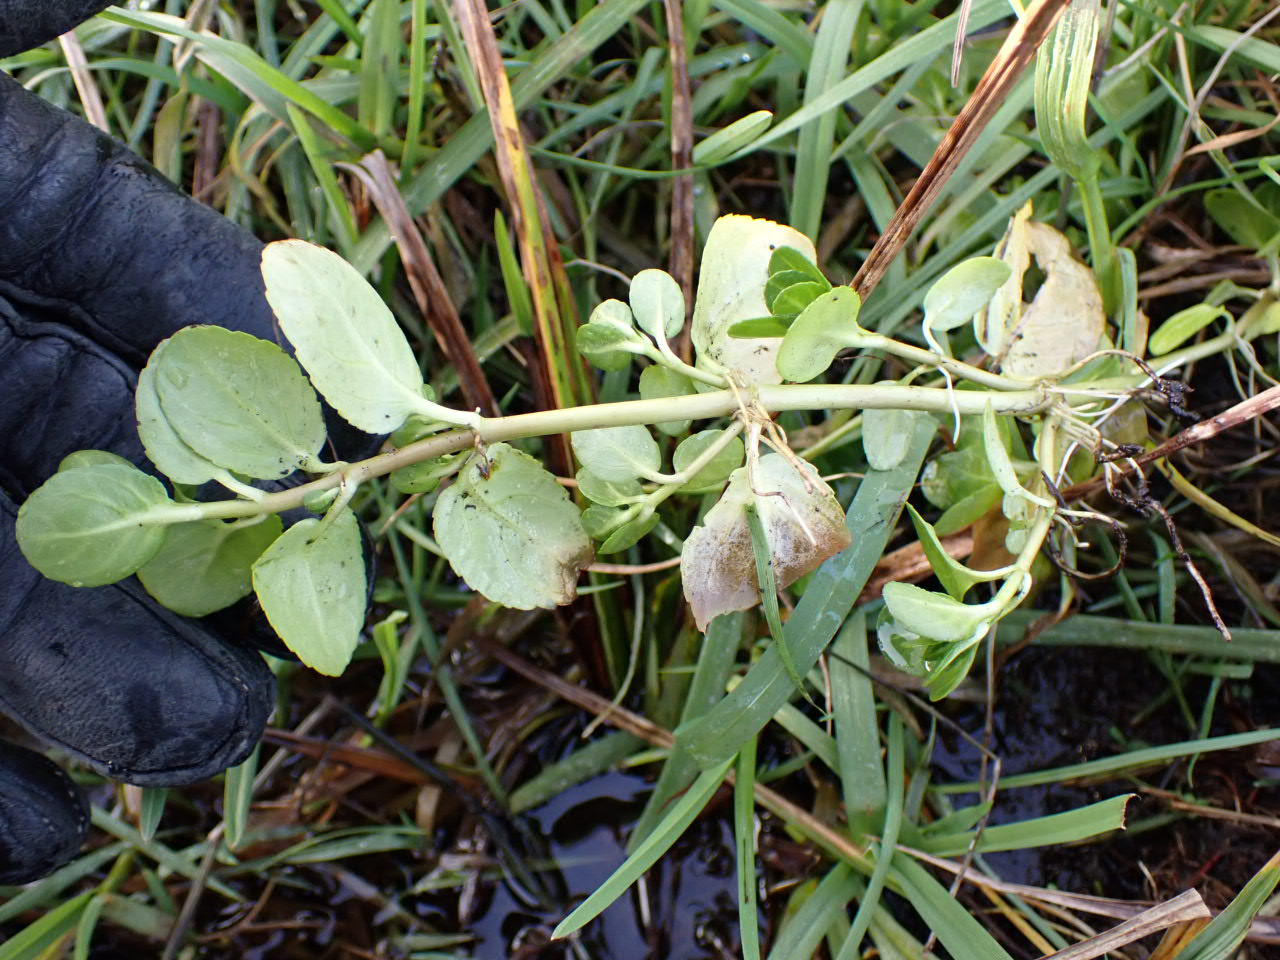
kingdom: Plantae
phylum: Tracheophyta
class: Magnoliopsida
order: Lamiales
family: Plantaginaceae
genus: Veronica
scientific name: Veronica beccabunga
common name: Tykbladet ærenpris
